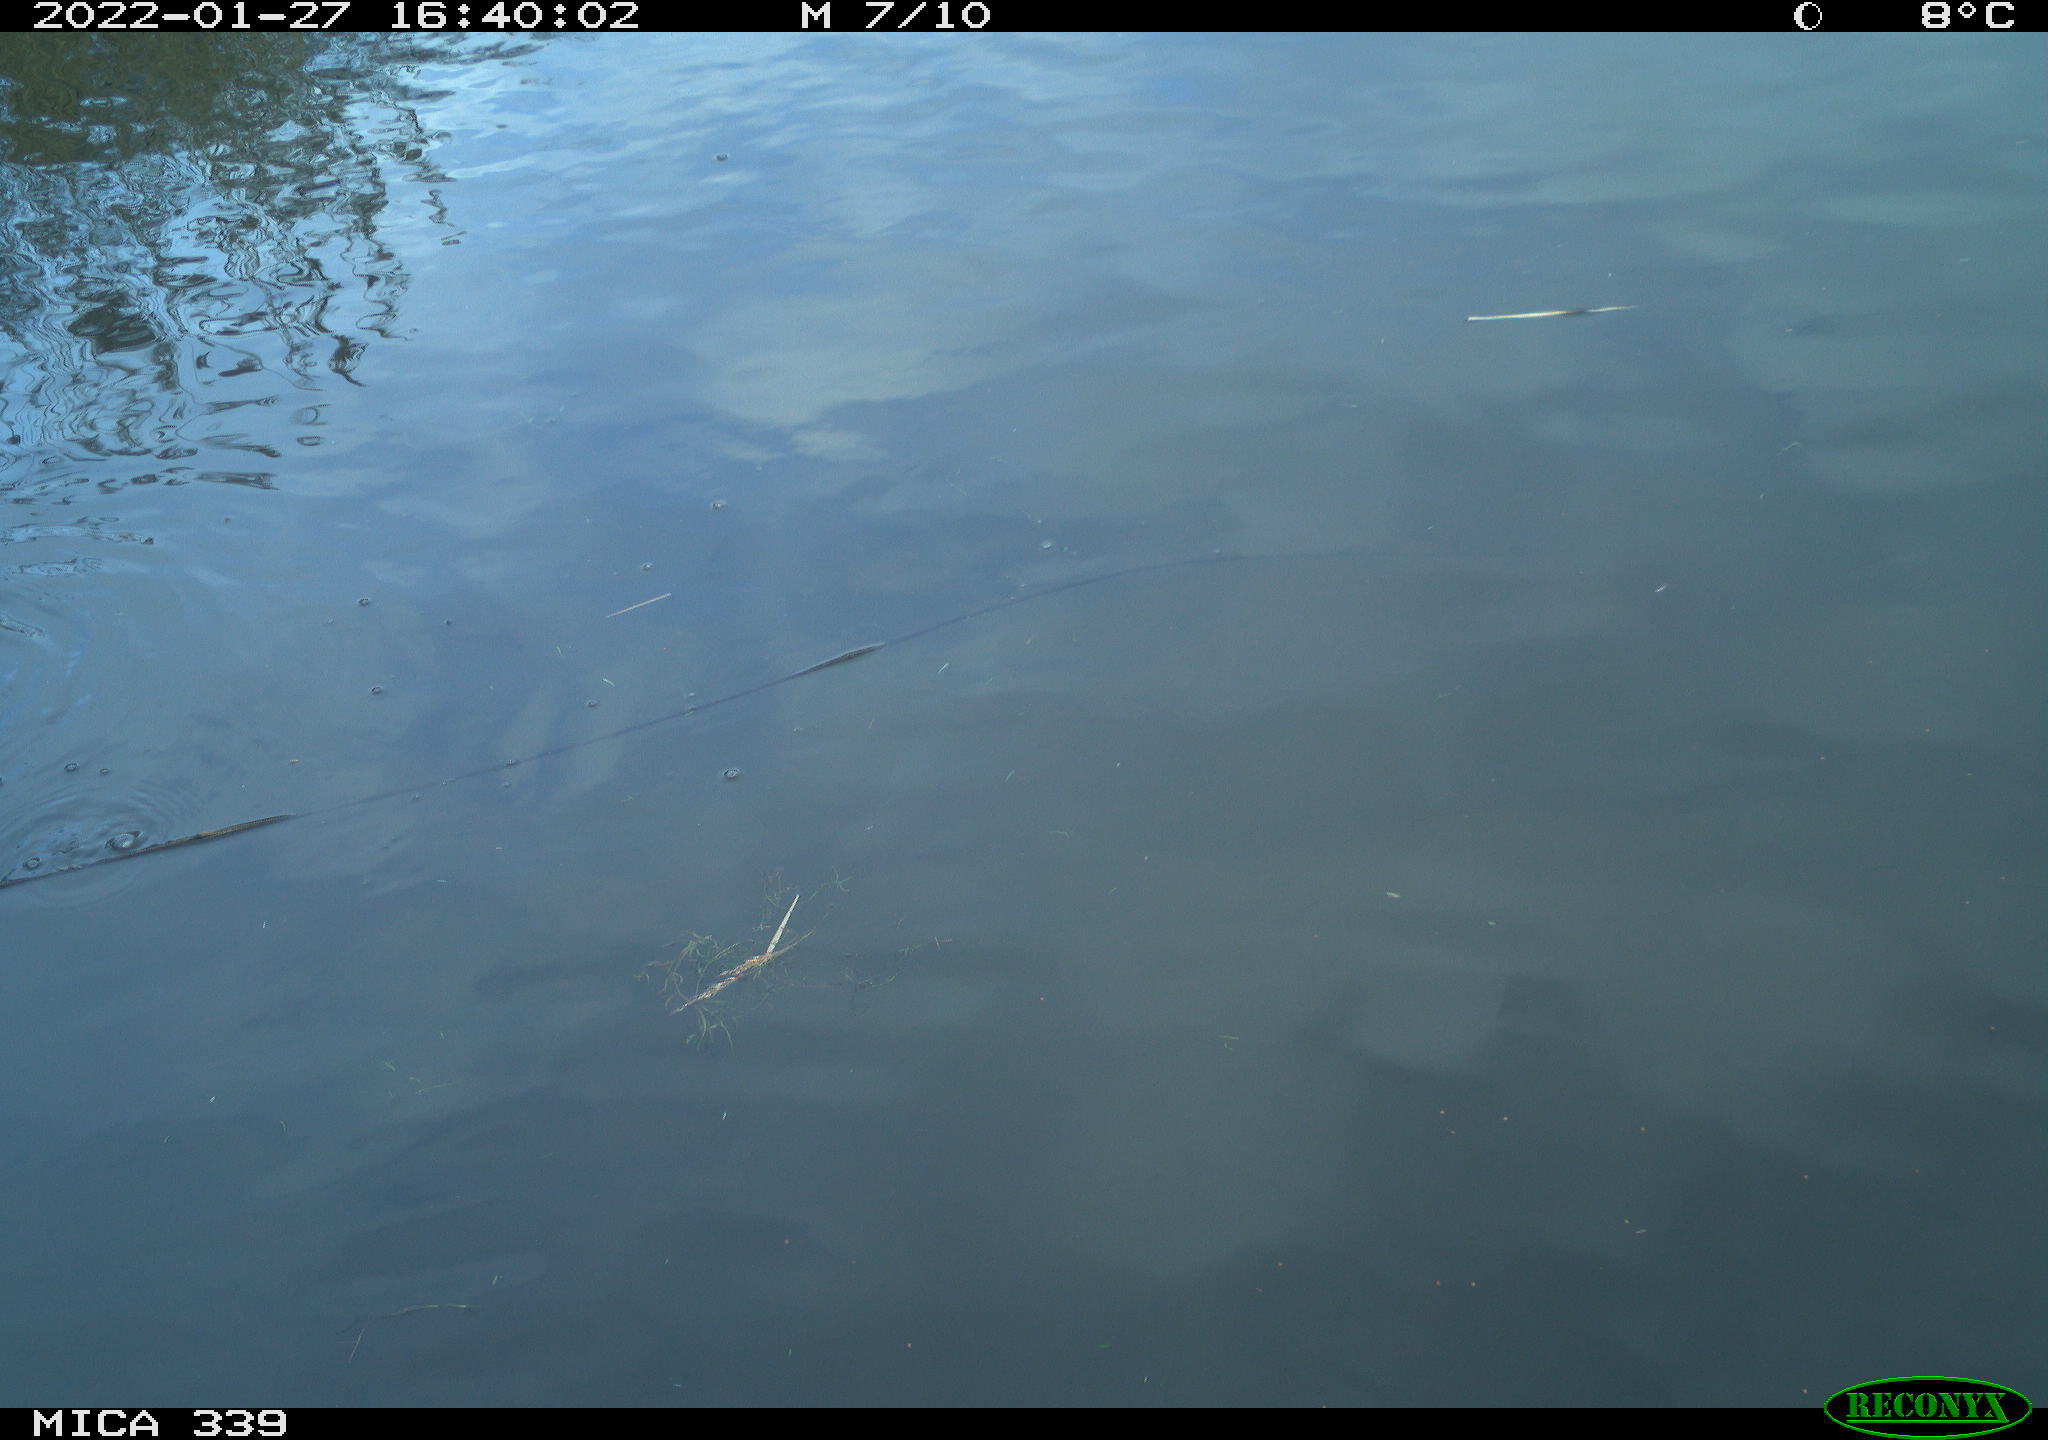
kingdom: Animalia
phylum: Chordata
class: Aves
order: Pelecaniformes
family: Ardeidae
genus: Ardea
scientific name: Ardea alba
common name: Great egret
